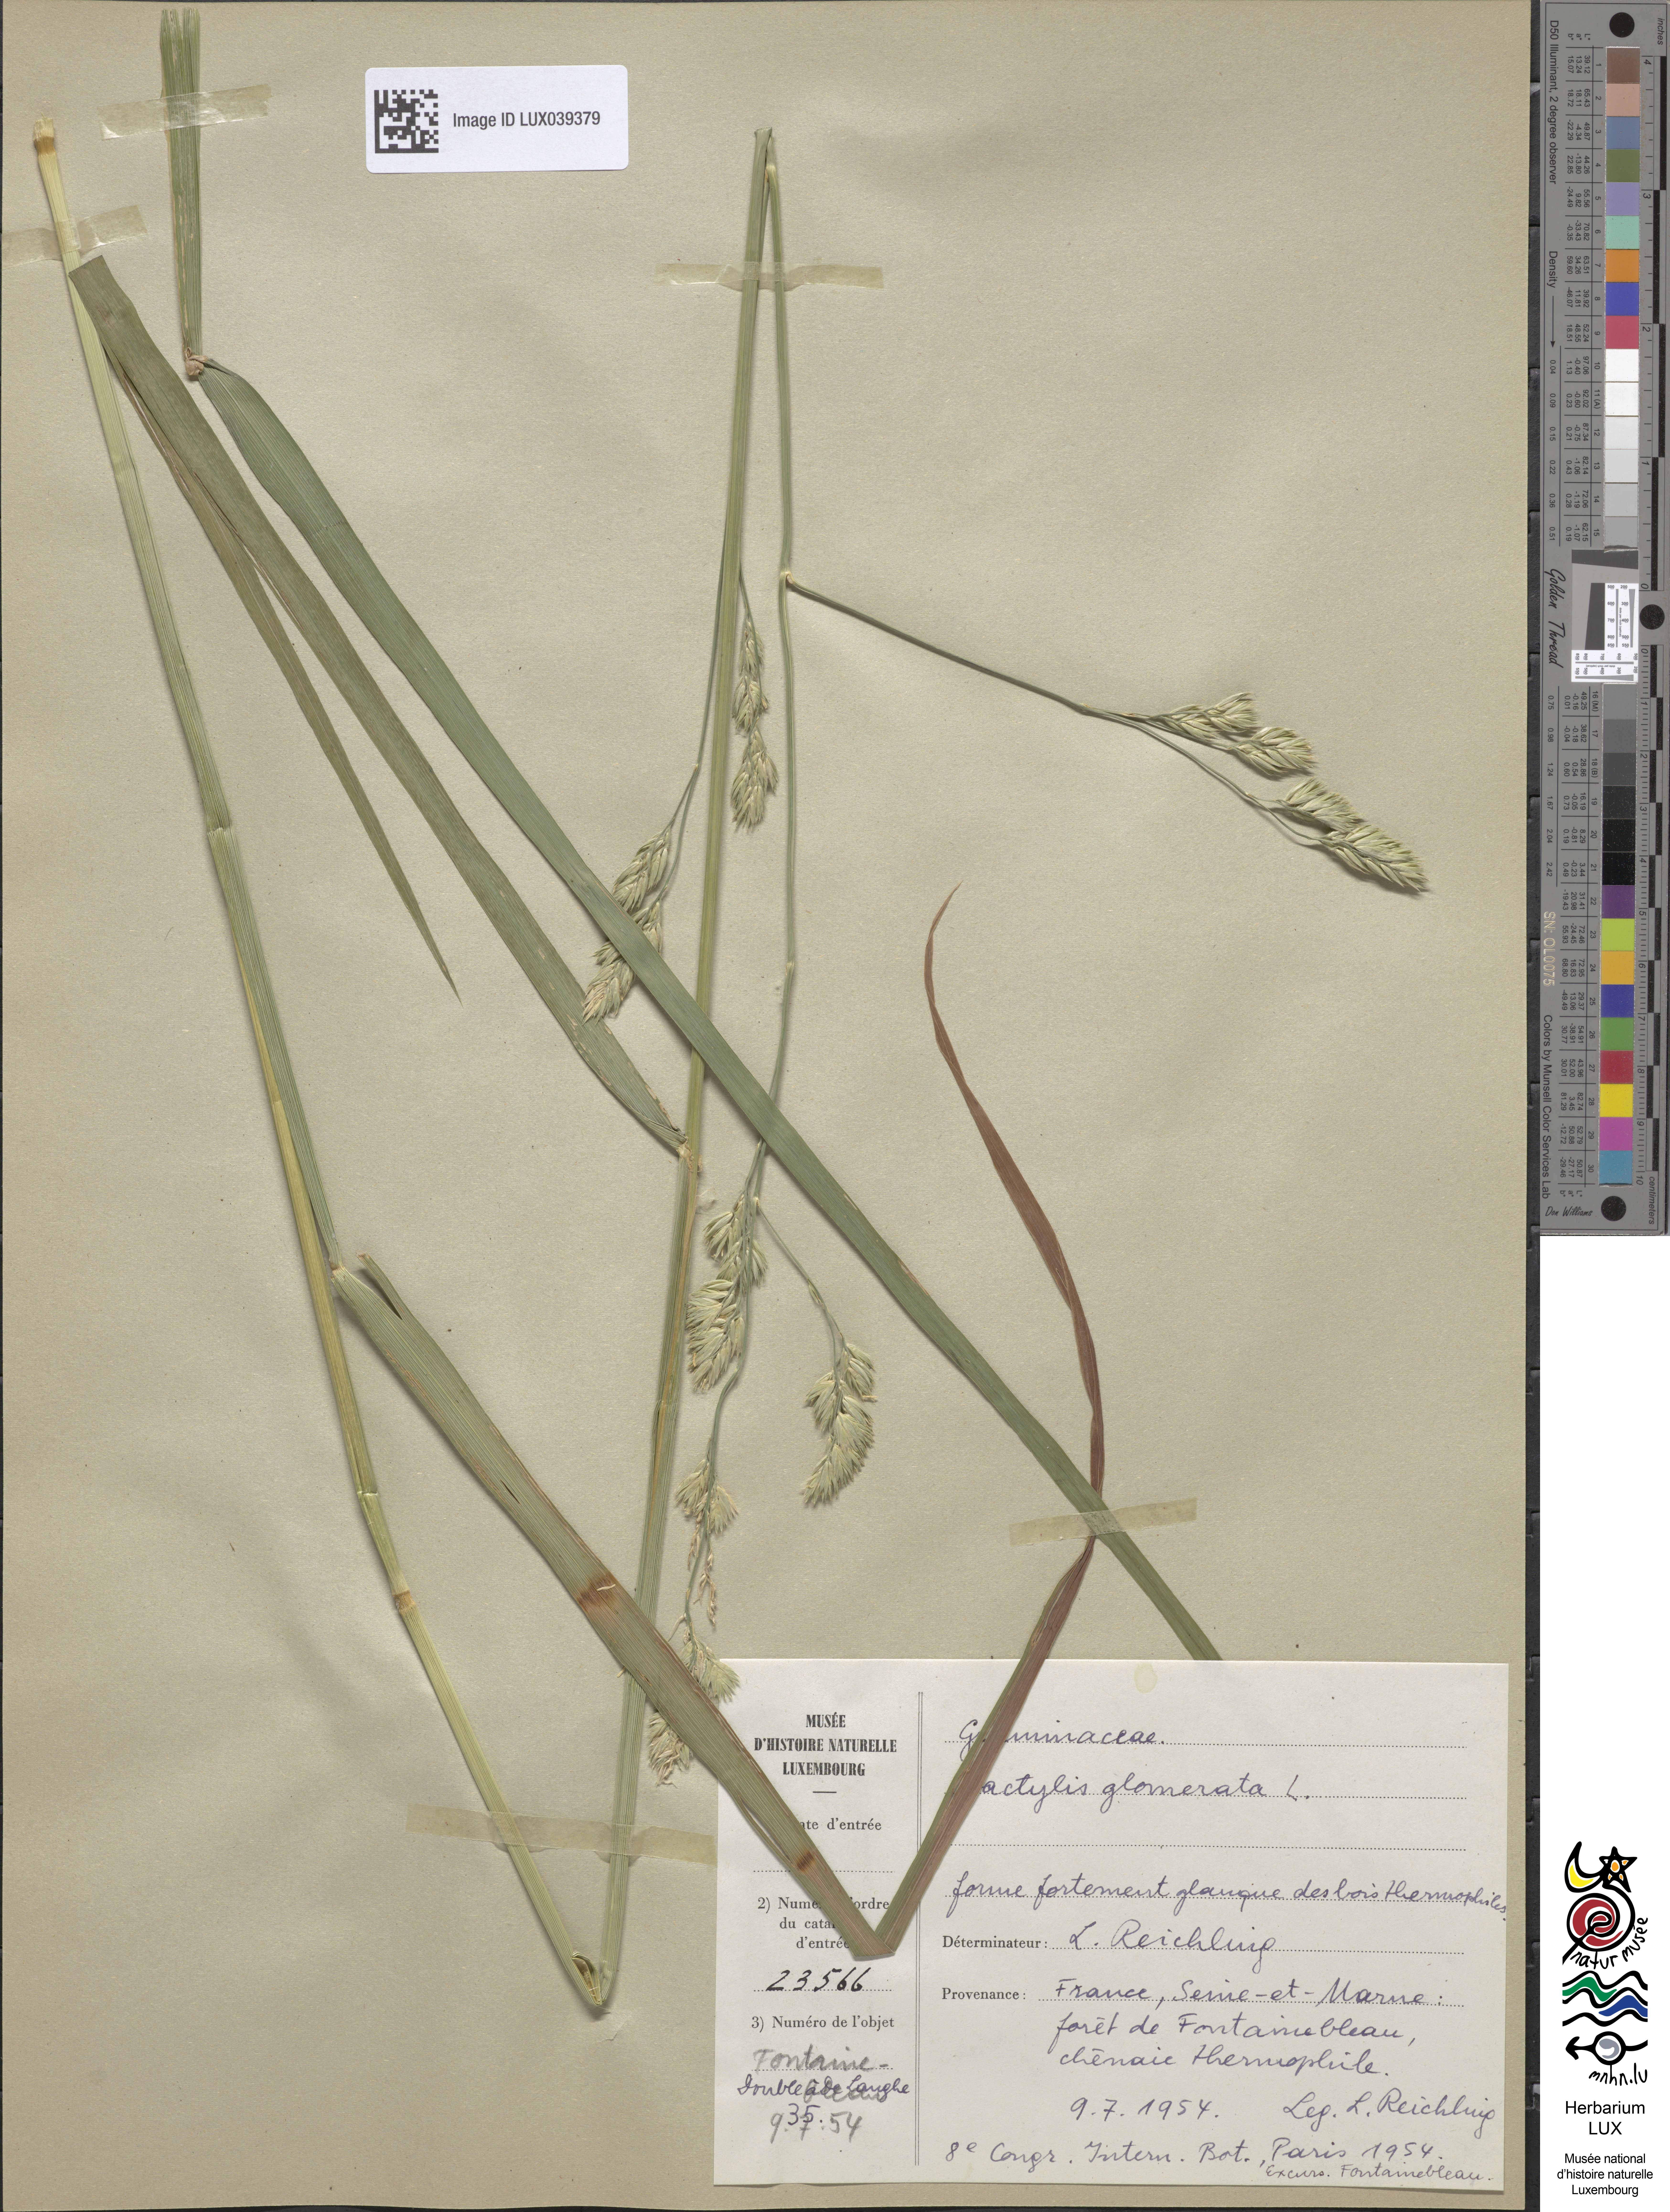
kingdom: Plantae
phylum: Tracheophyta
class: Liliopsida
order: Poales
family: Poaceae
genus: Dactylis
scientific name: Dactylis glomerata
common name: Orchardgrass
